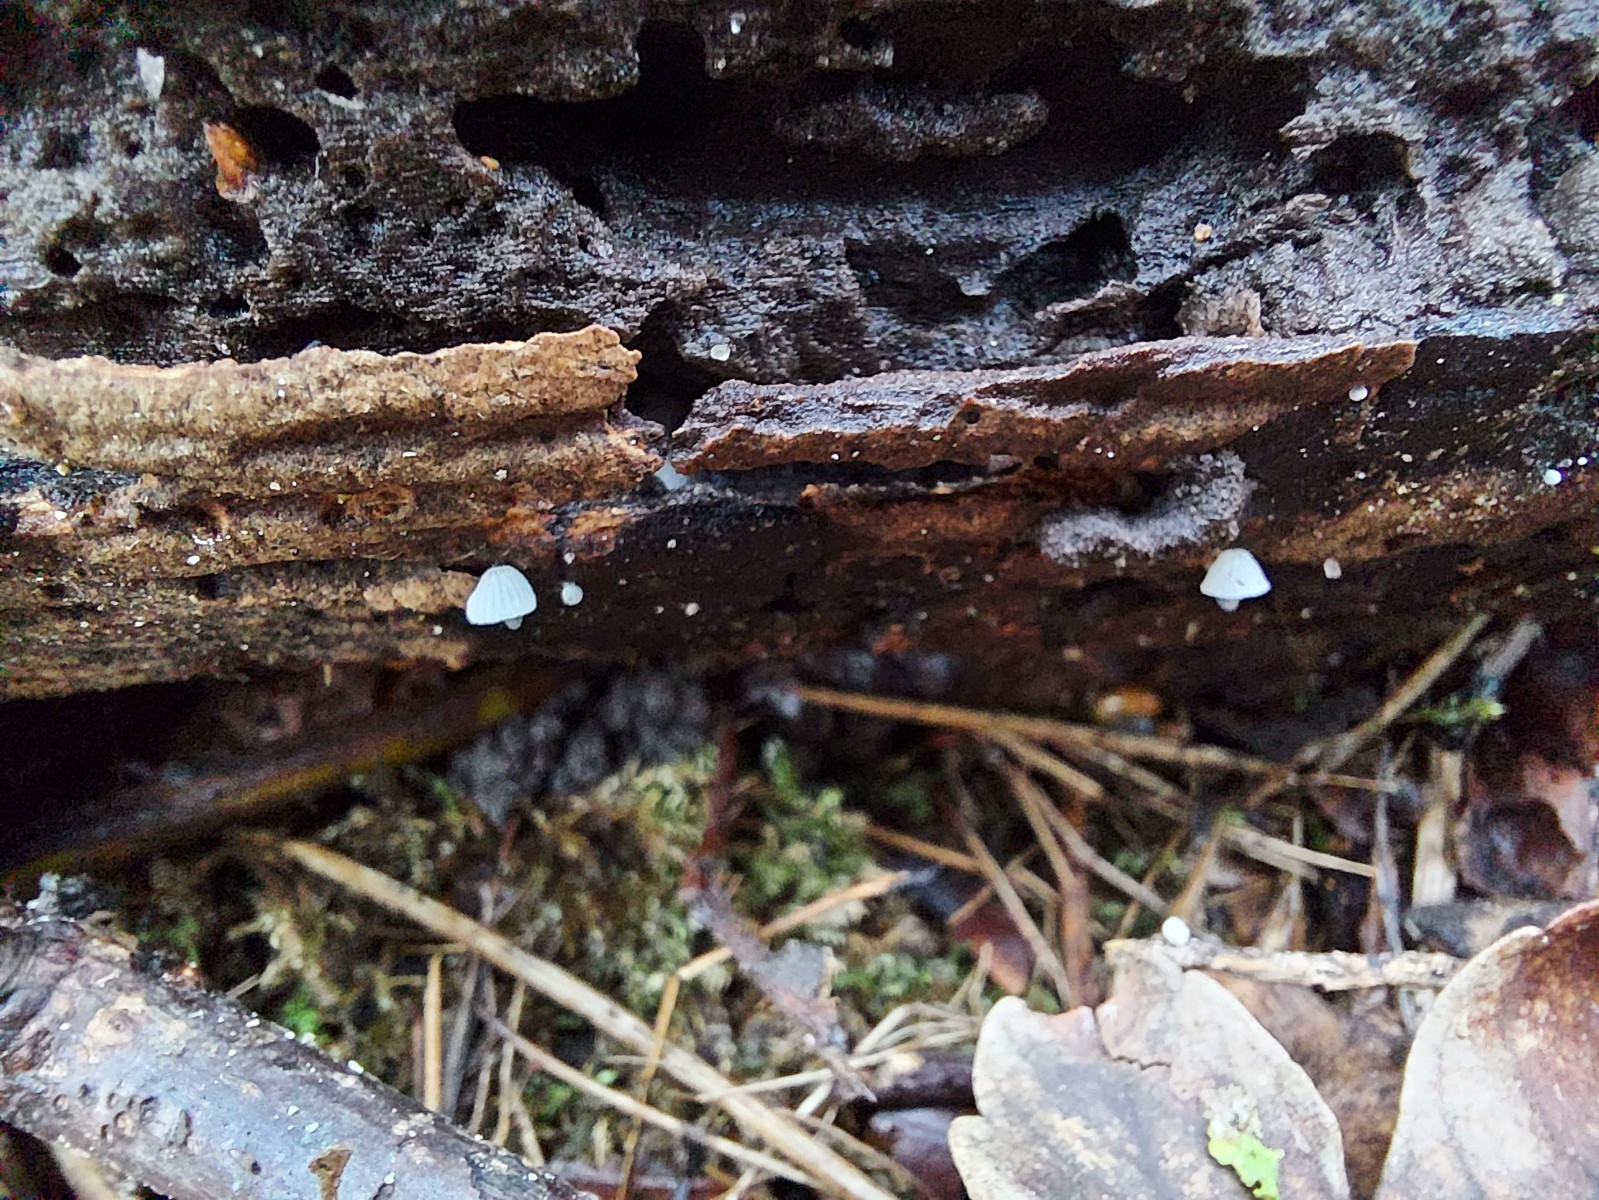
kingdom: Fungi
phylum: Basidiomycota
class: Agaricomycetes
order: Agaricales
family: Mycenaceae
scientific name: Mycenaceae
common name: huesvampfamilien
